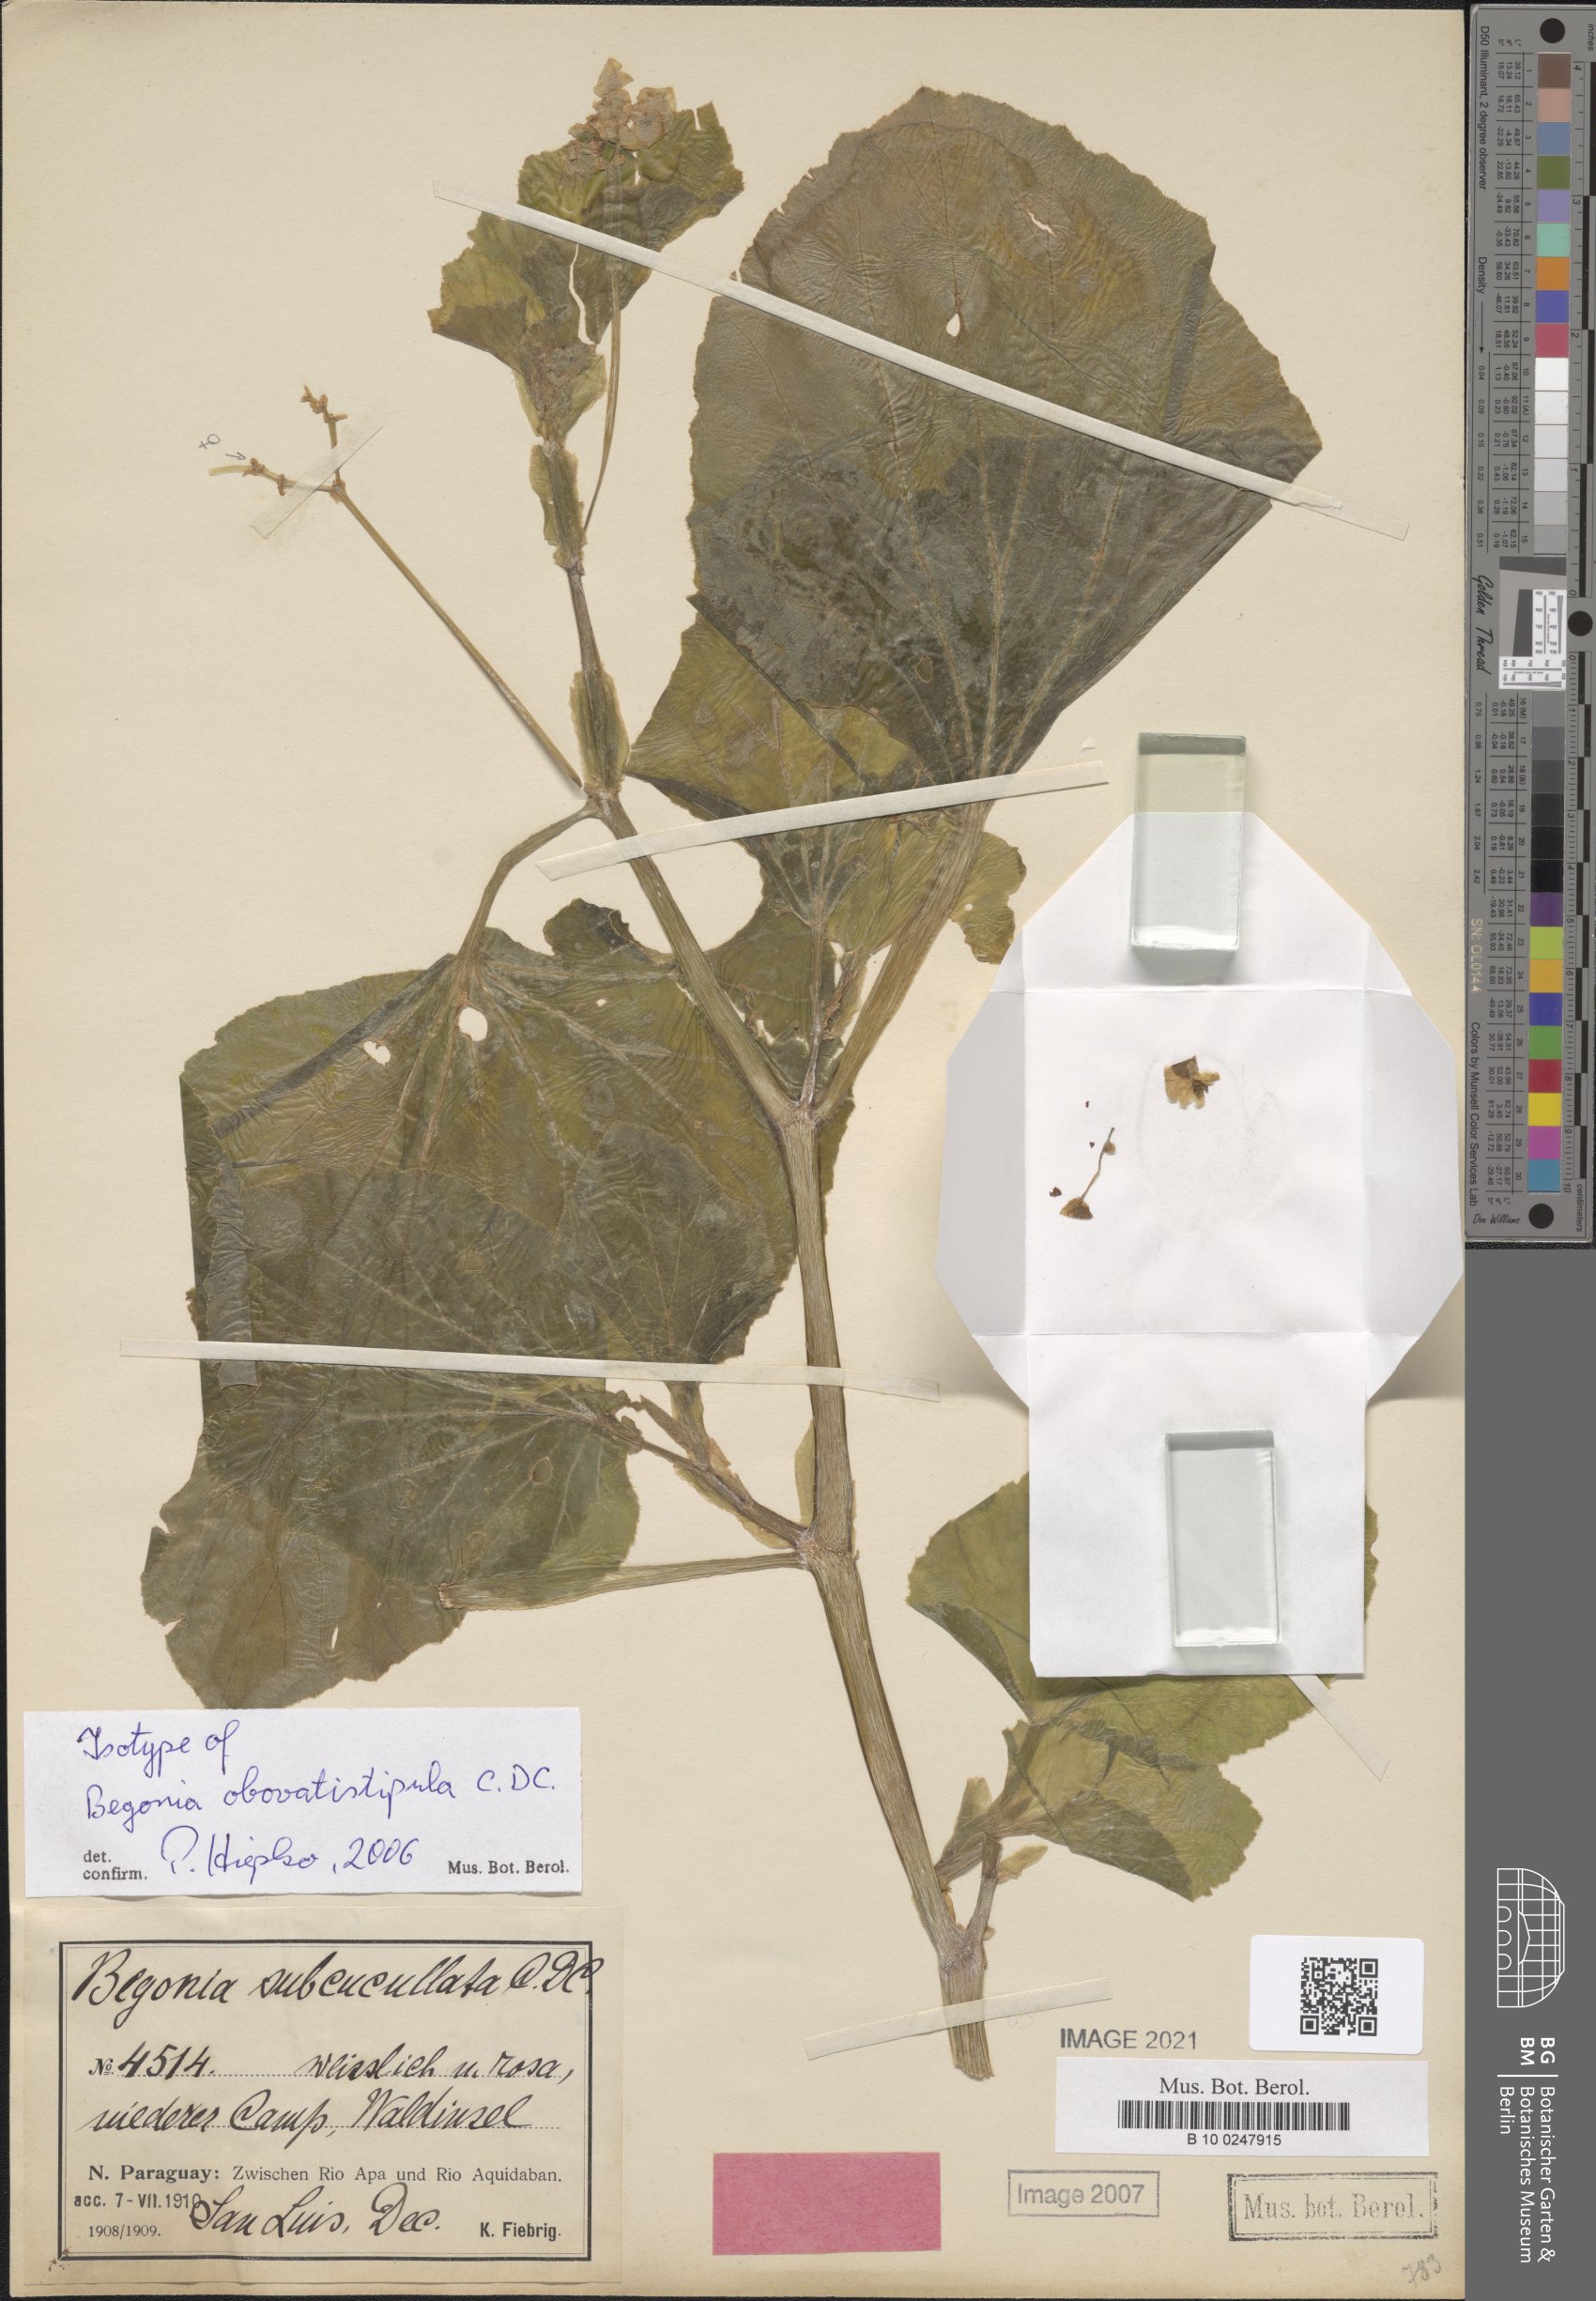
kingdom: Plantae
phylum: Tracheophyta
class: Magnoliopsida
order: Cucurbitales
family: Begoniaceae
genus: Begonia
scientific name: Begonia obovatistipula
